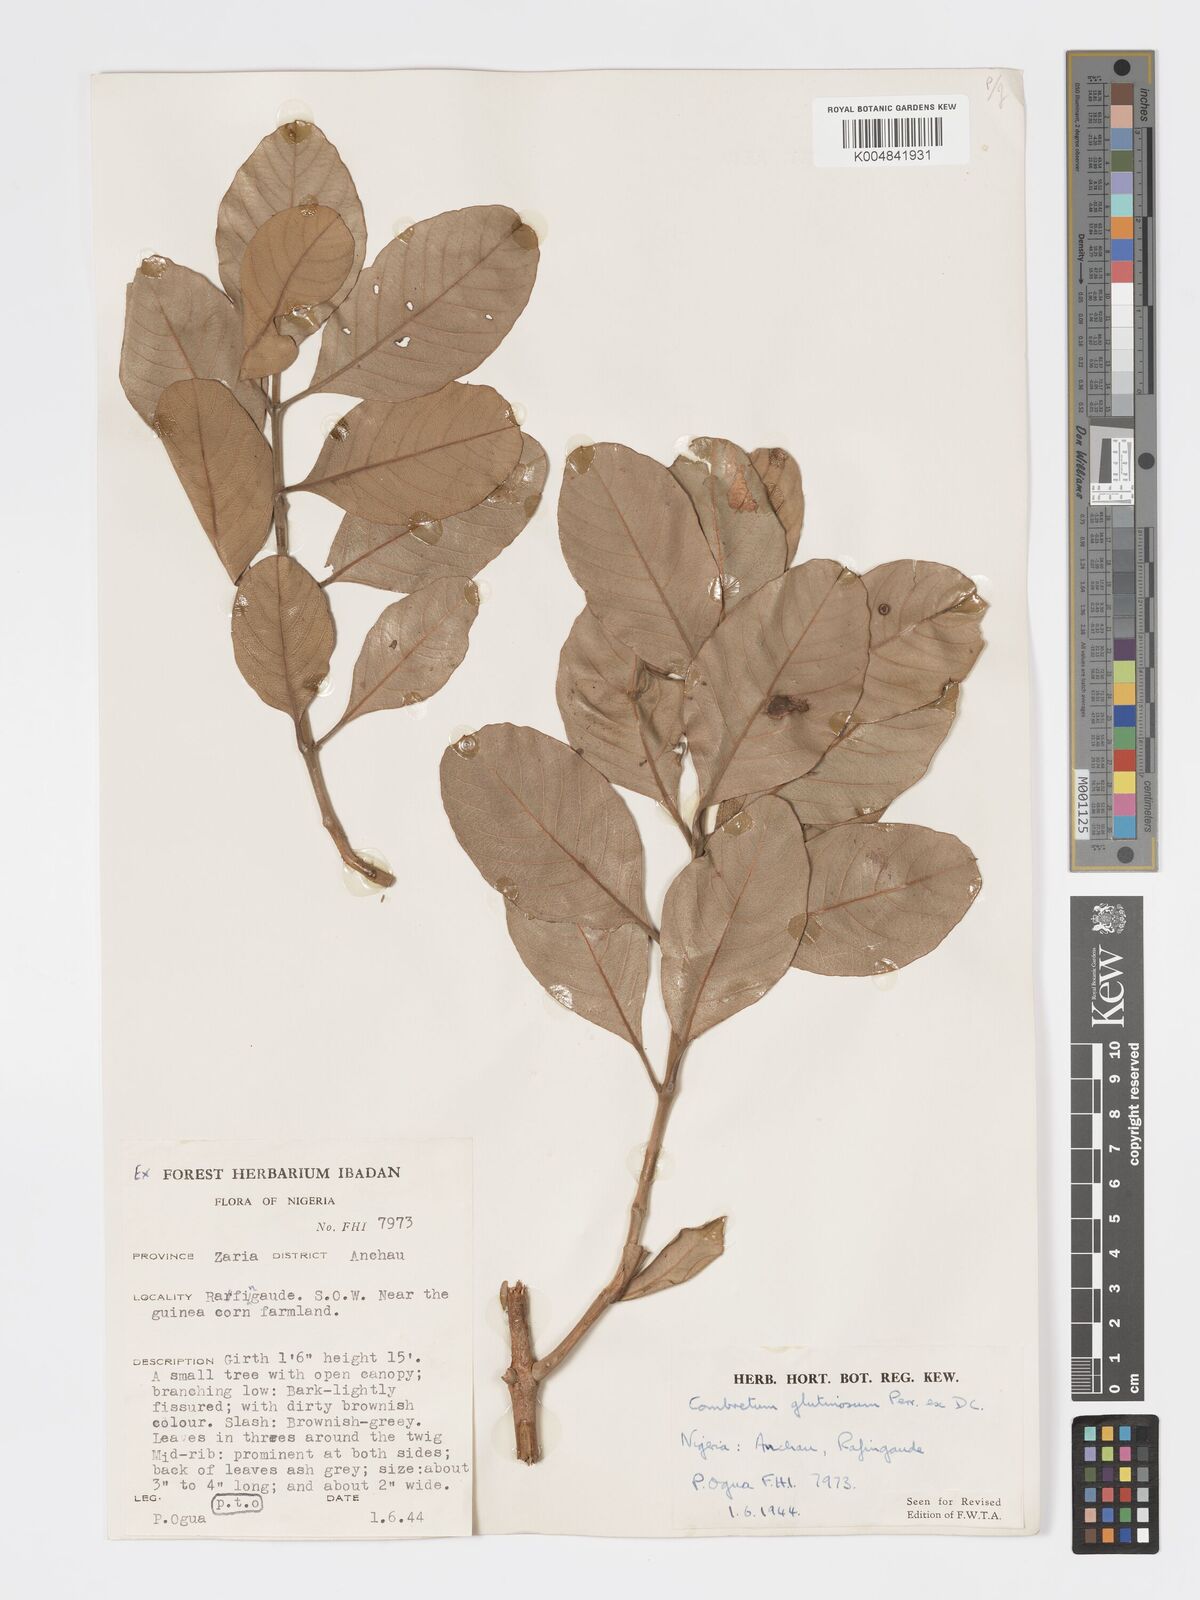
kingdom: Plantae
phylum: Tracheophyta
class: Magnoliopsida
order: Myrtales
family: Combretaceae
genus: Combretum
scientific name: Combretum
